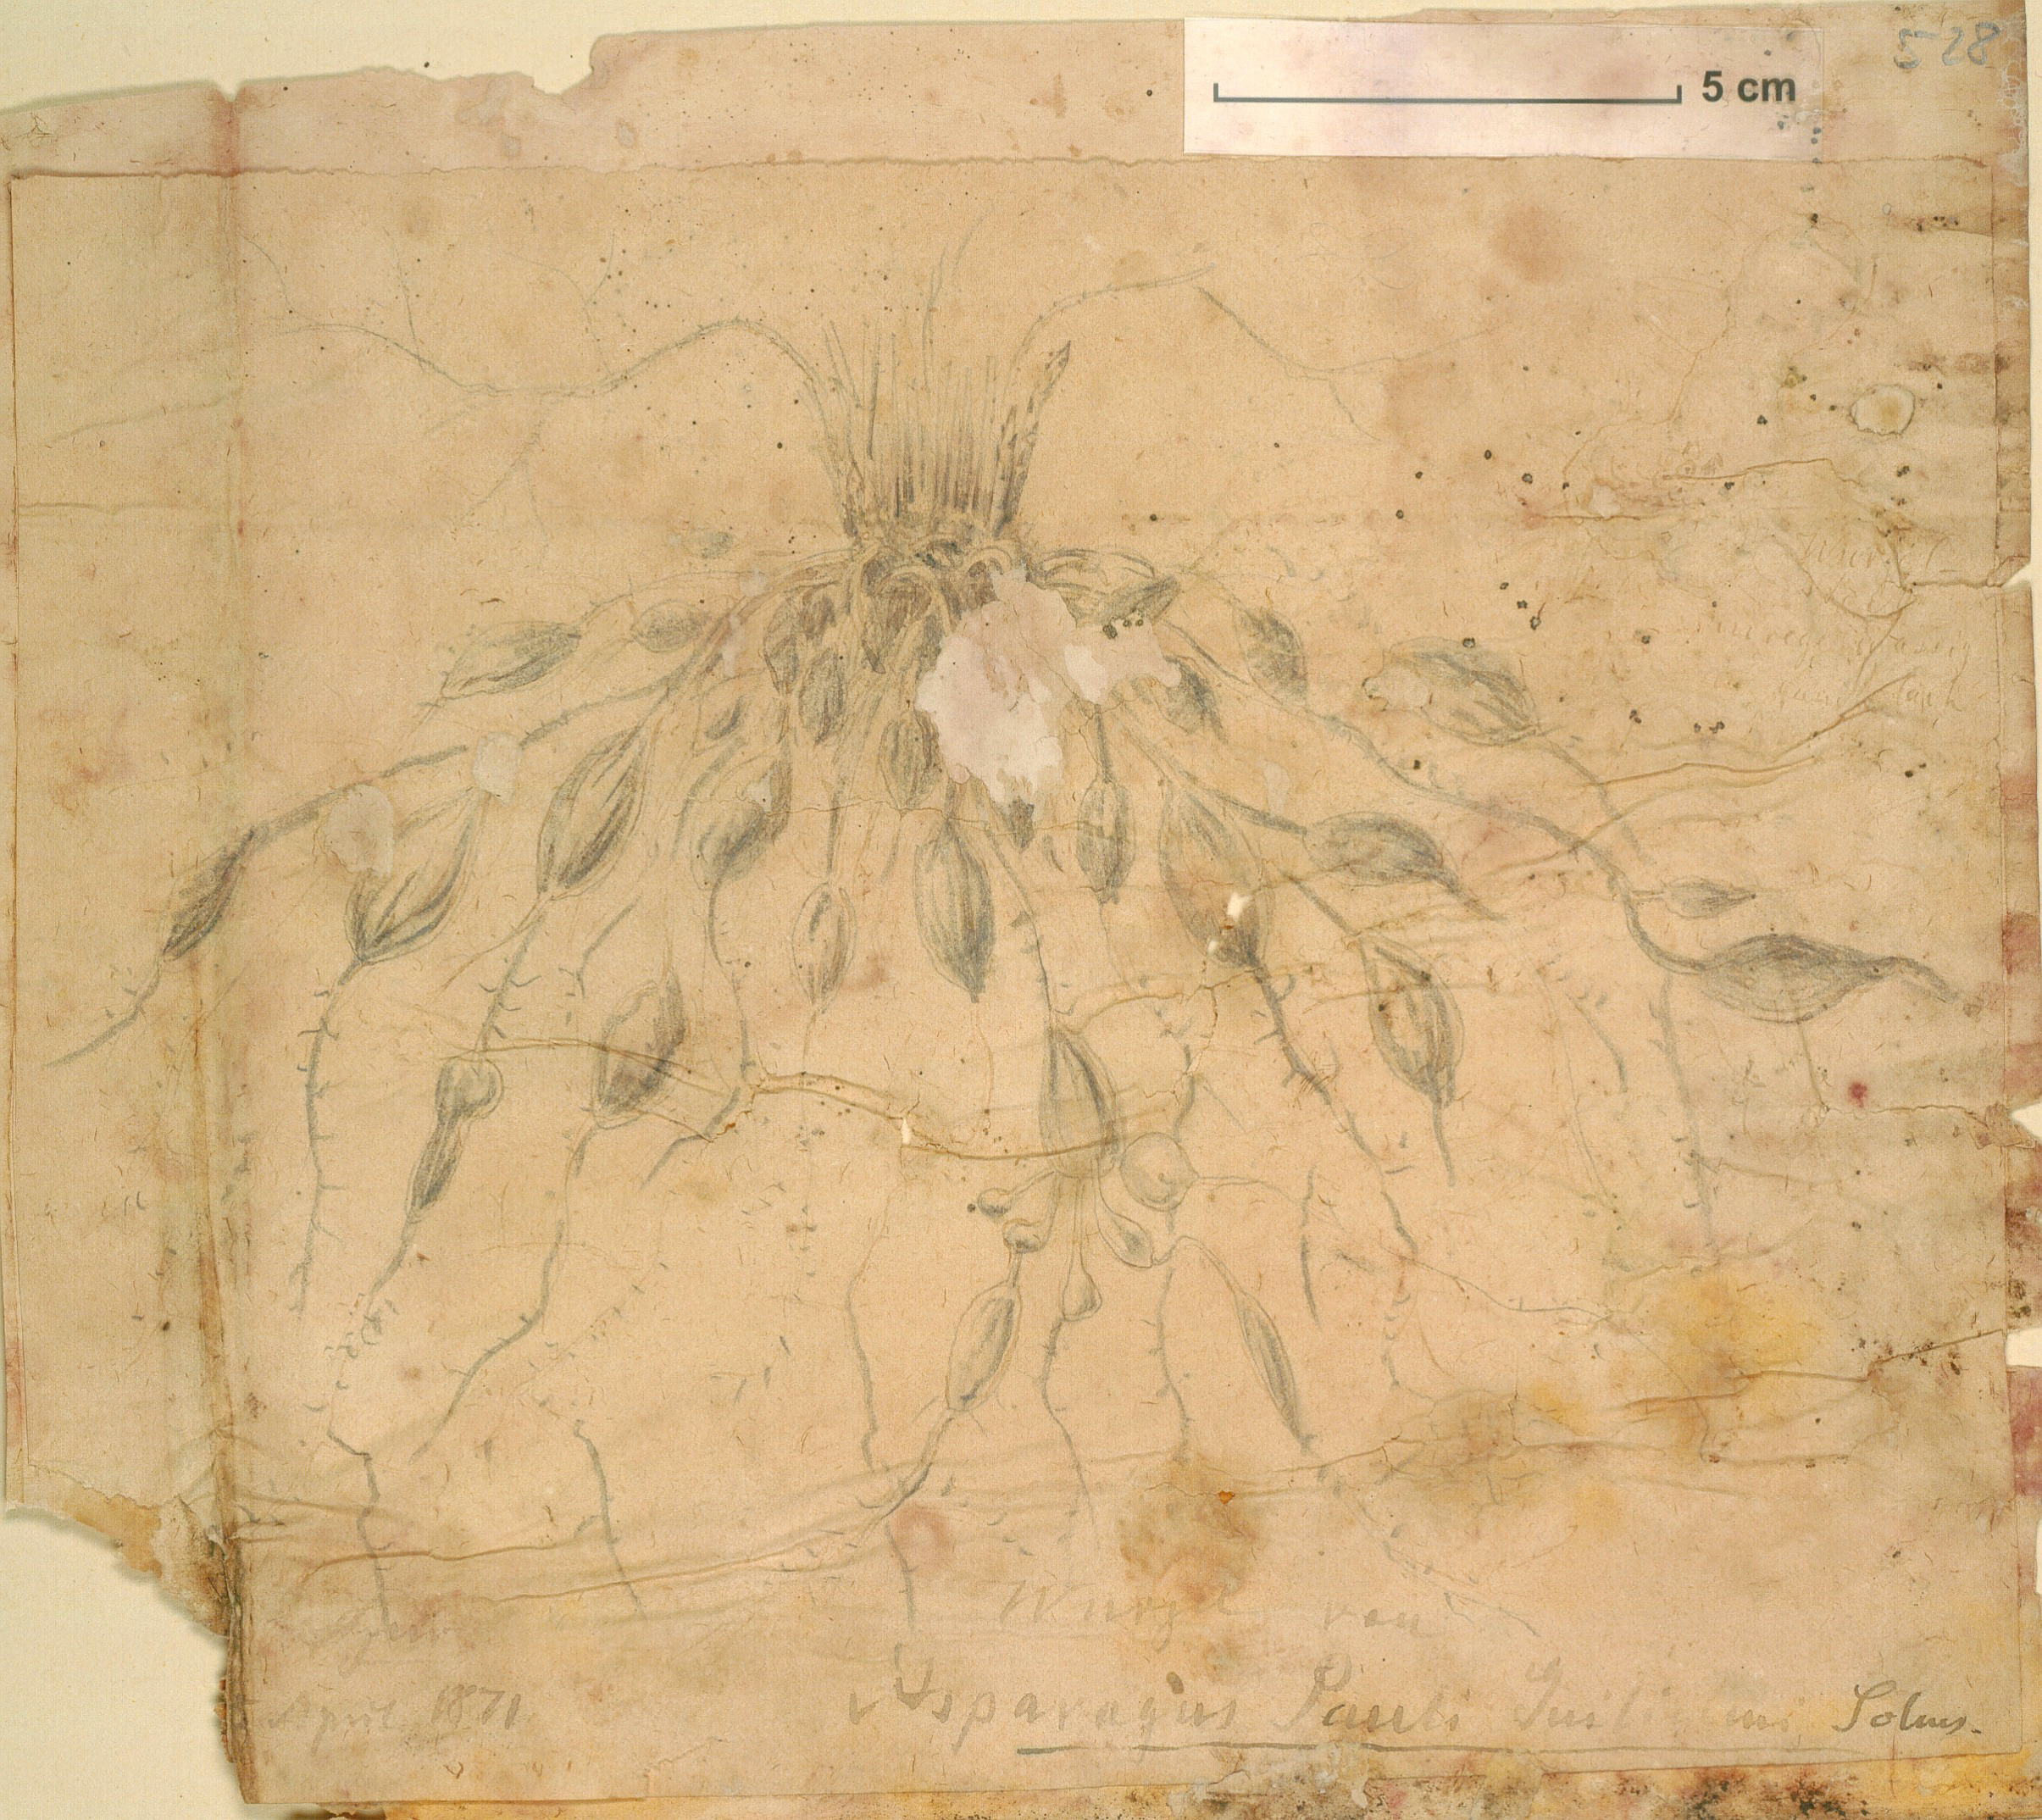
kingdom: Plantae
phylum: Tracheophyta
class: Liliopsida
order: Asparagales
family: Asparagaceae
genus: Asparagus
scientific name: Asparagus flagellaris
